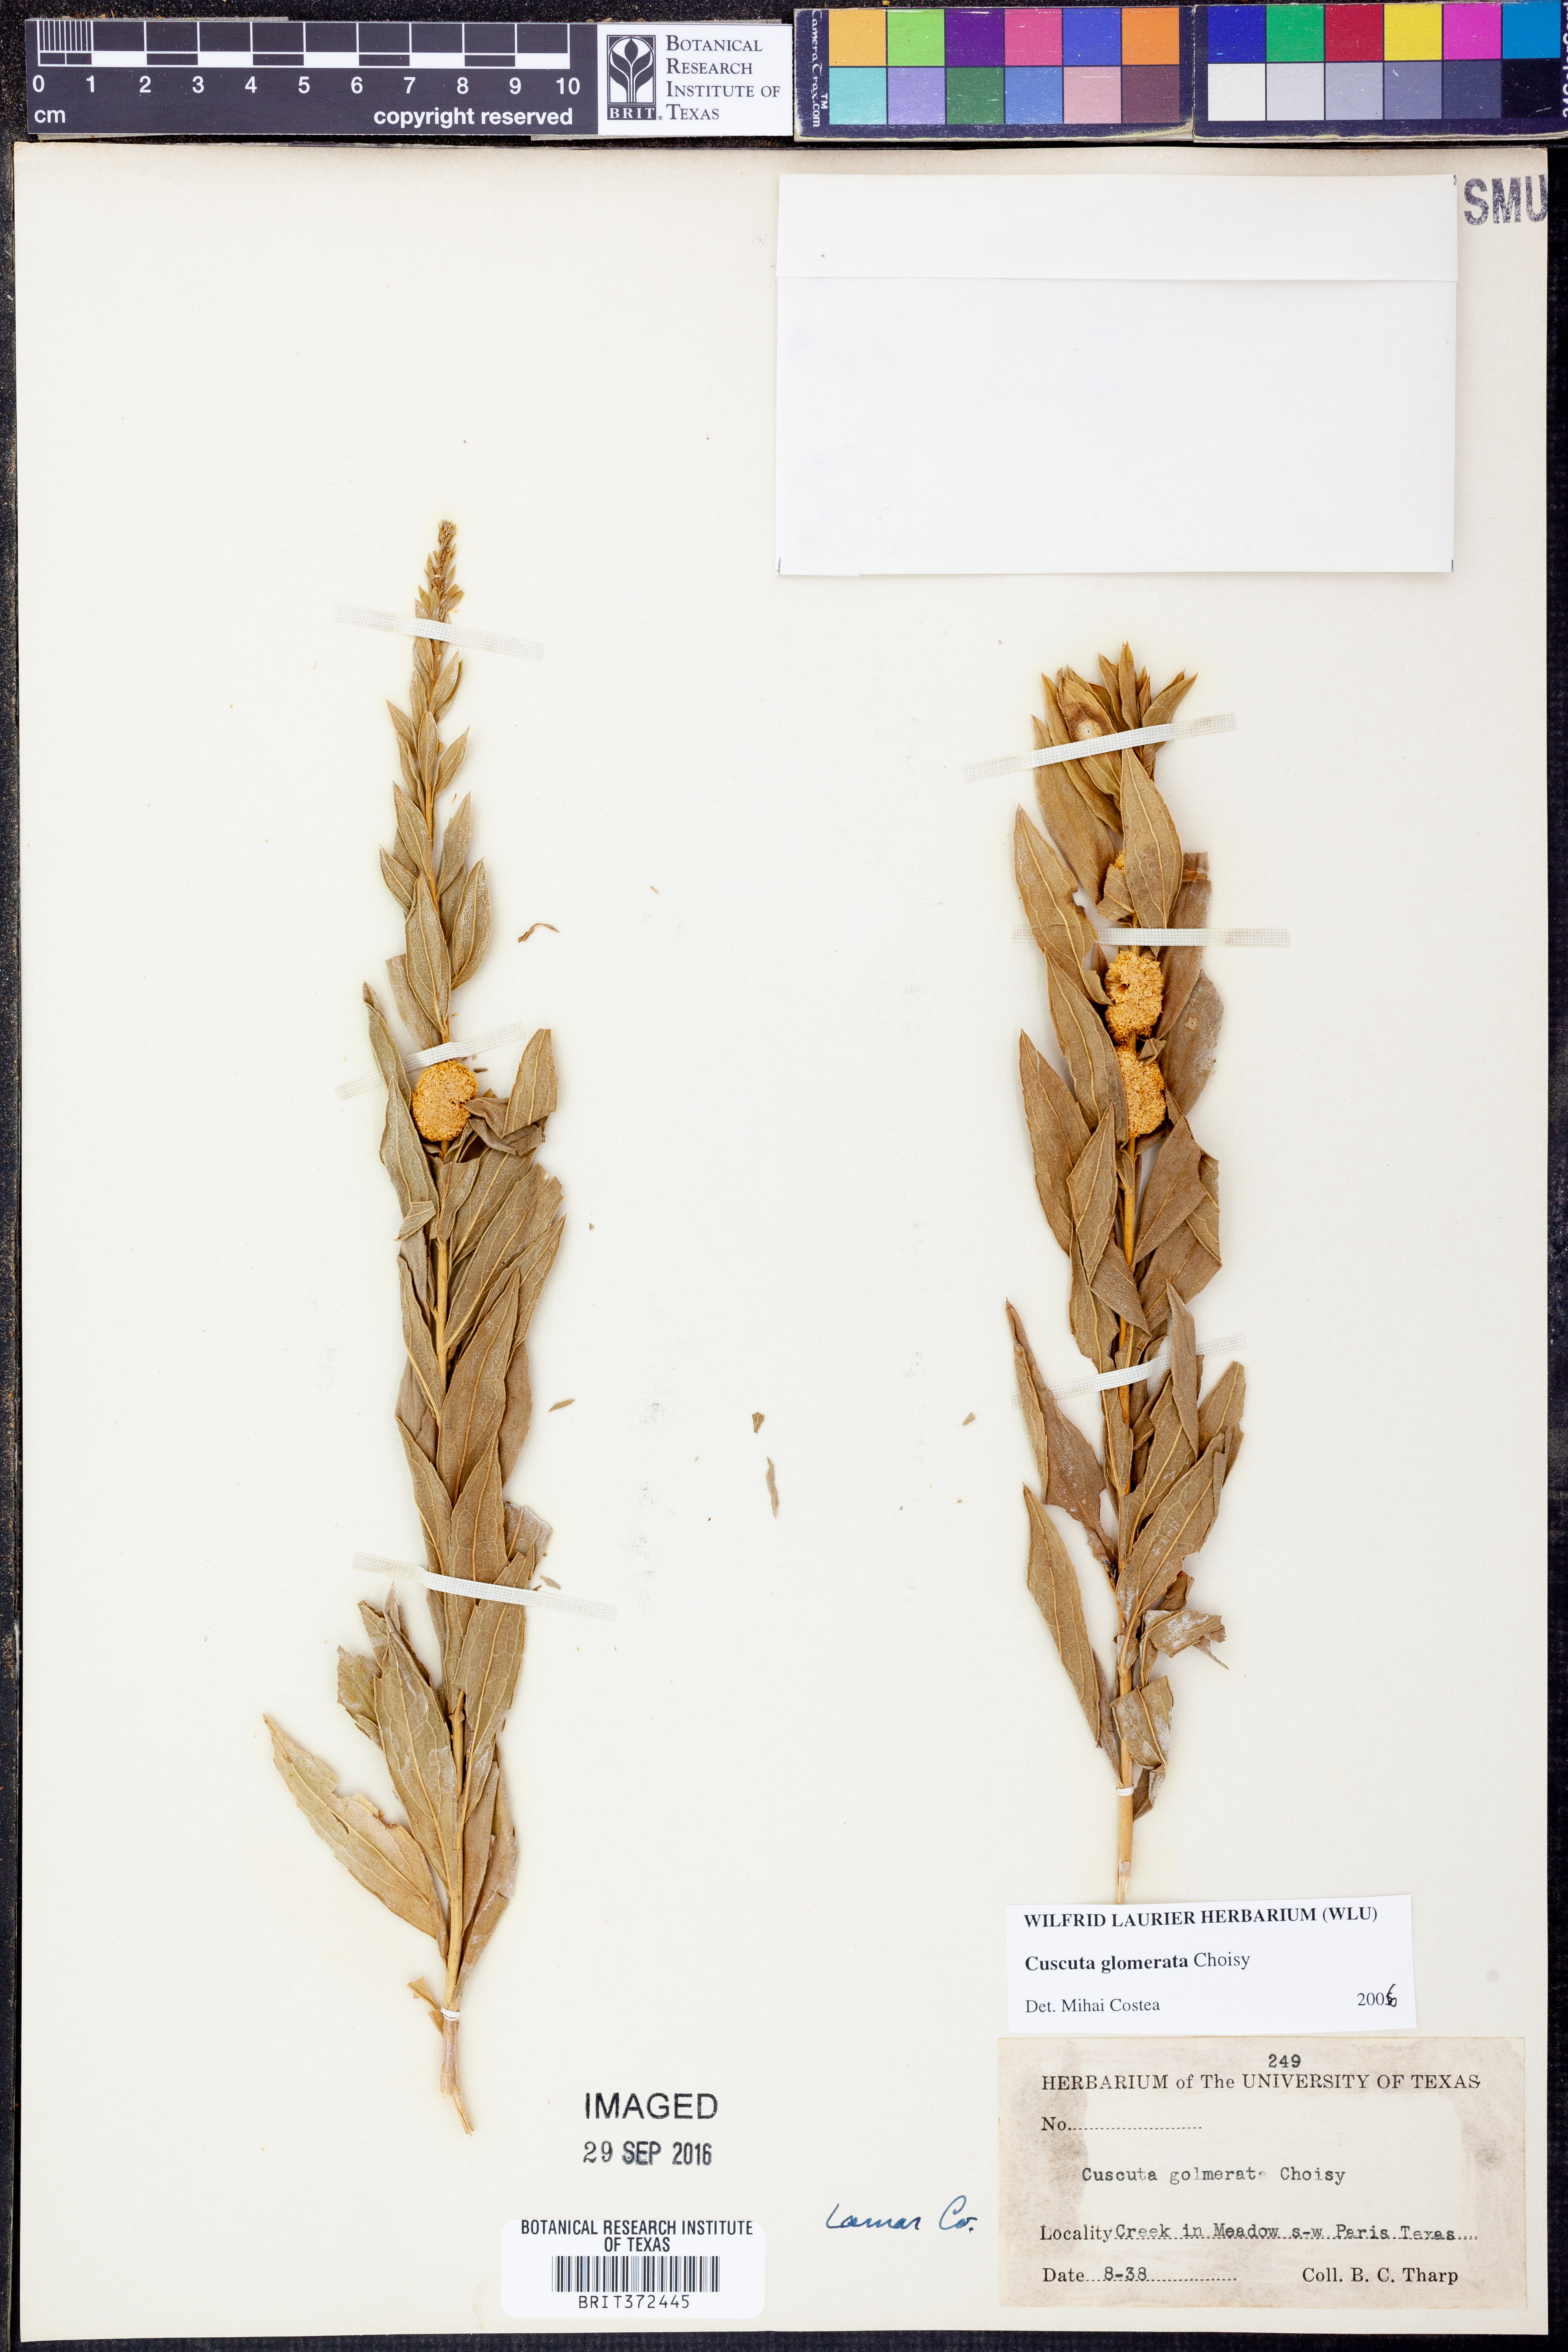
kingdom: Plantae
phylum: Tracheophyta
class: Magnoliopsida
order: Solanales
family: Convolvulaceae
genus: Cuscuta
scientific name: Cuscuta glomerata
